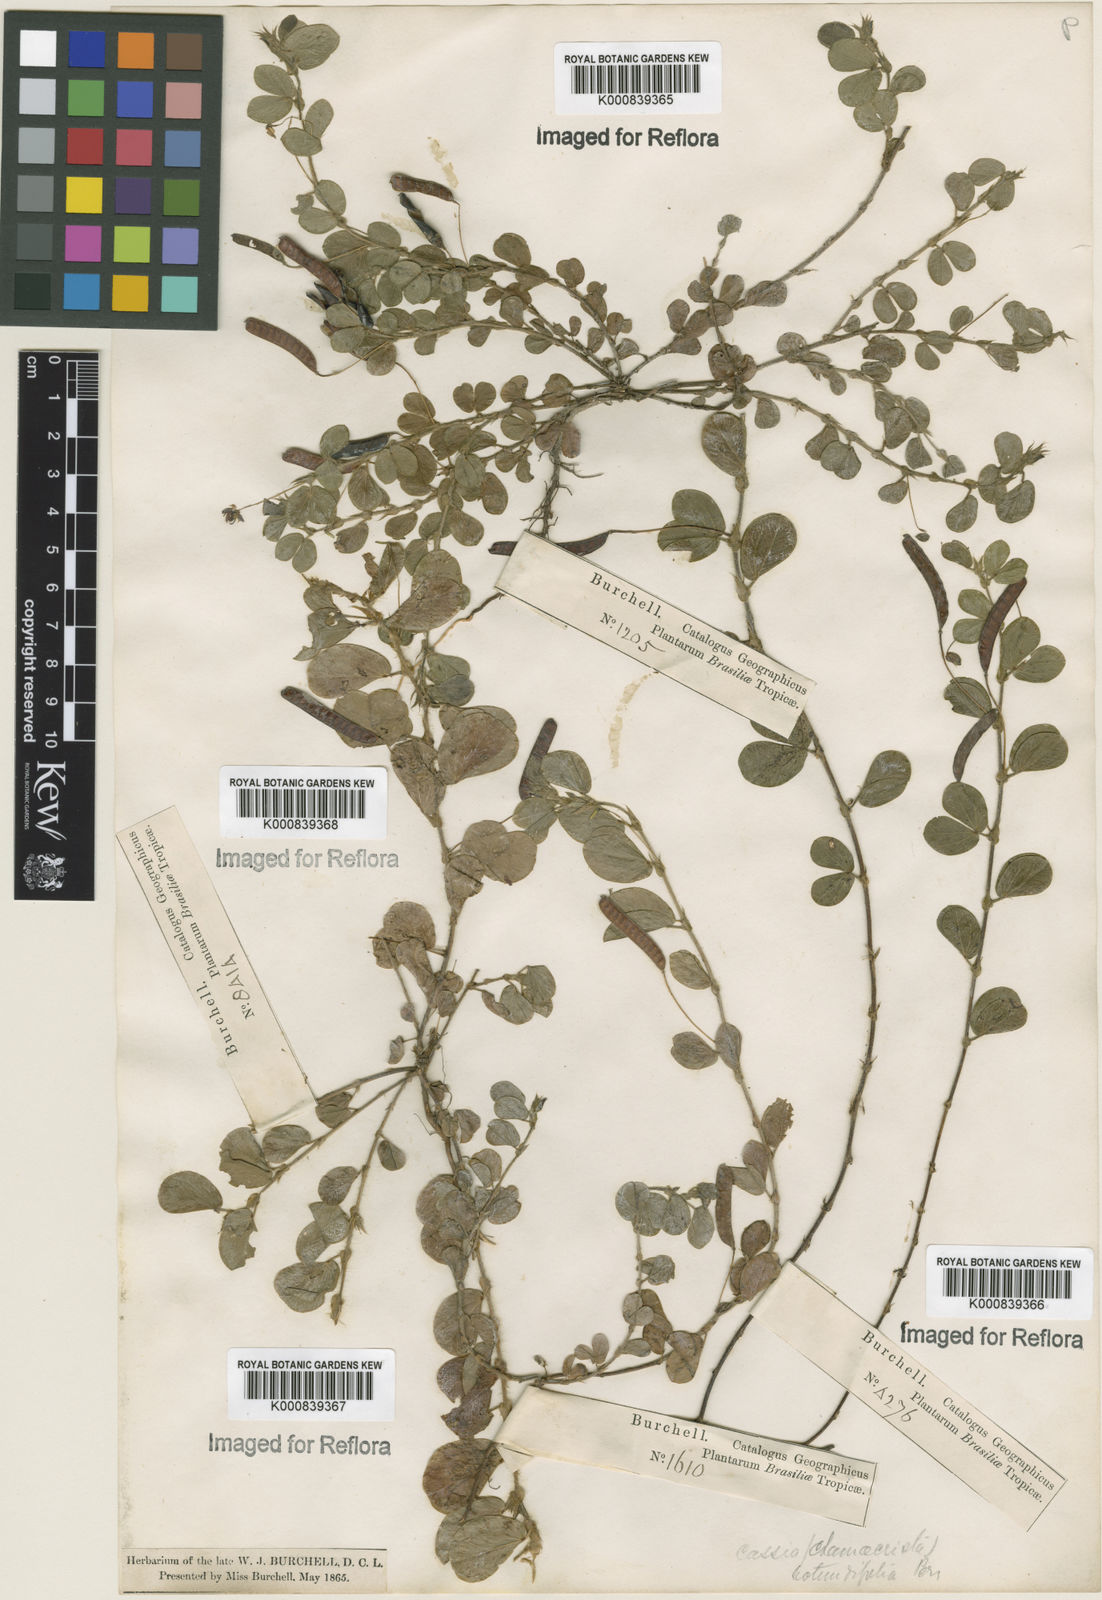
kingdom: Plantae
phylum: Tracheophyta
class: Magnoliopsida
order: Fabales
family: Fabaceae
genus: Chamaecrista
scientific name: Chamaecrista rotundifolia
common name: Round-leaf cassia
